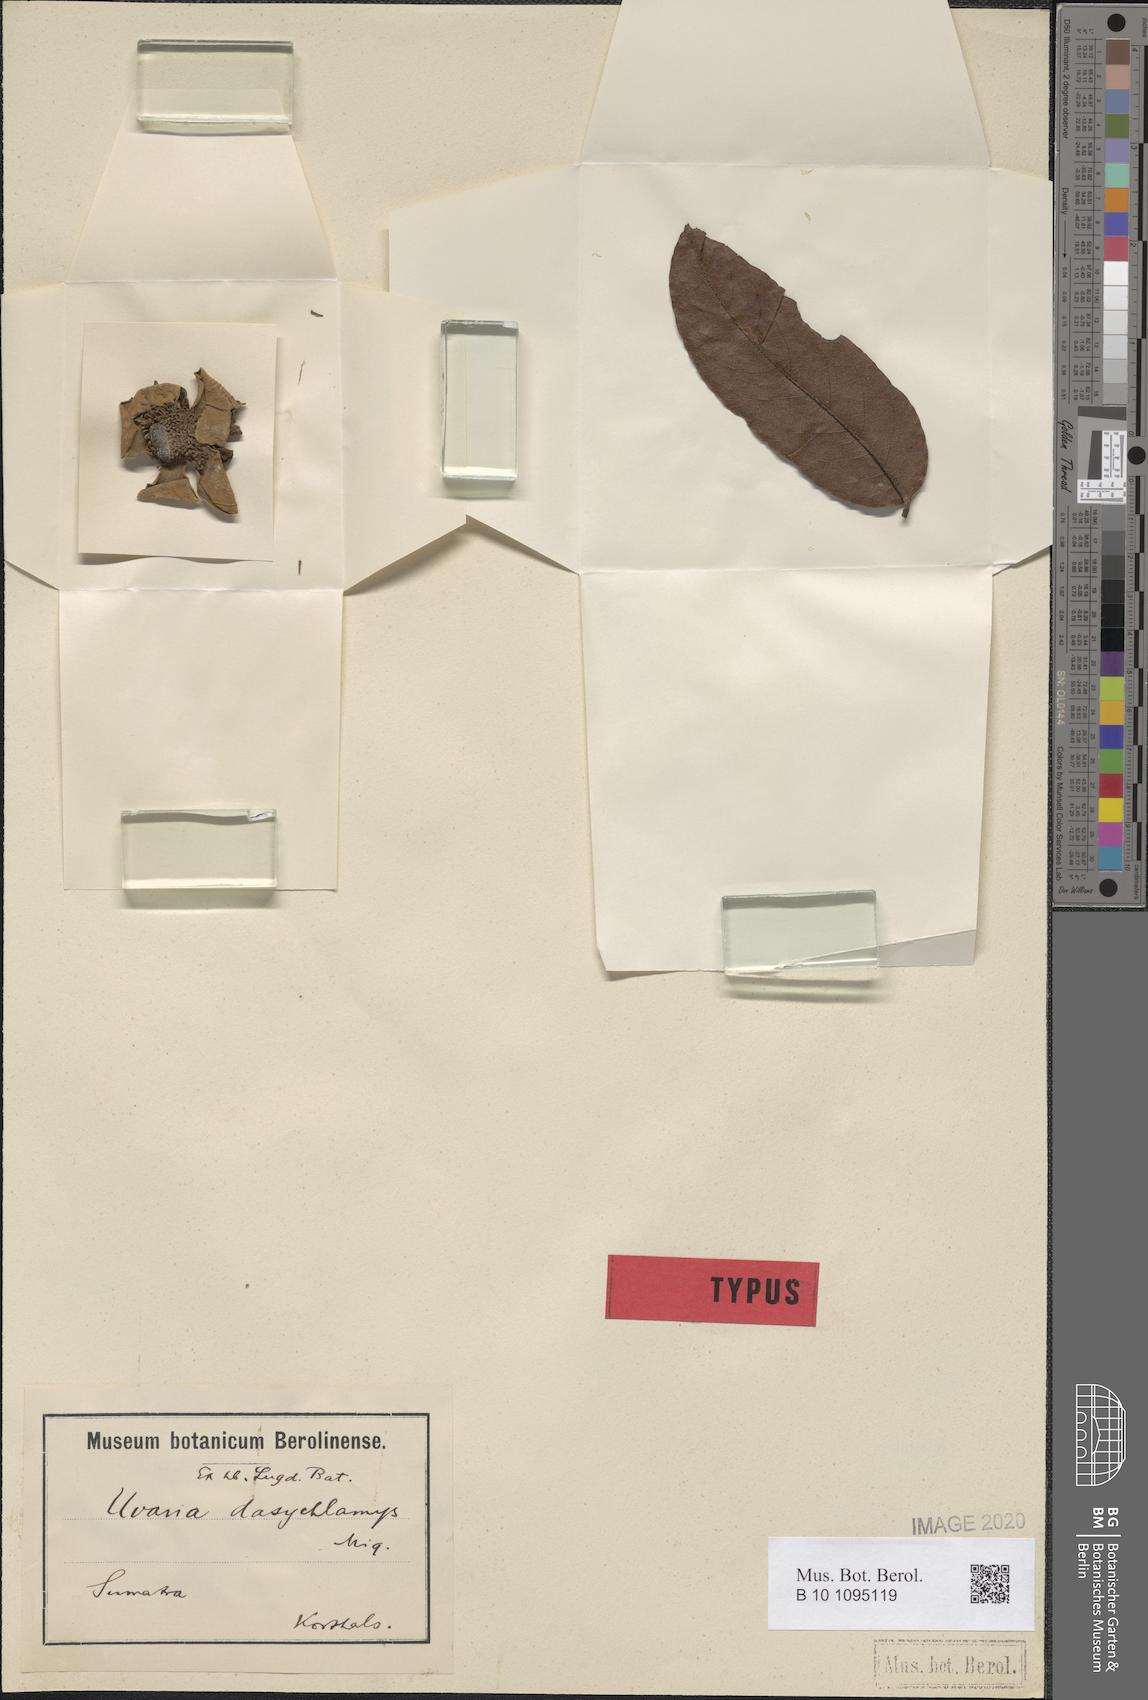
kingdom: Plantae
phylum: Tracheophyta
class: Magnoliopsida
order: Magnoliales
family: Annonaceae
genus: Uvaria
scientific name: Uvaria dasychlamys
